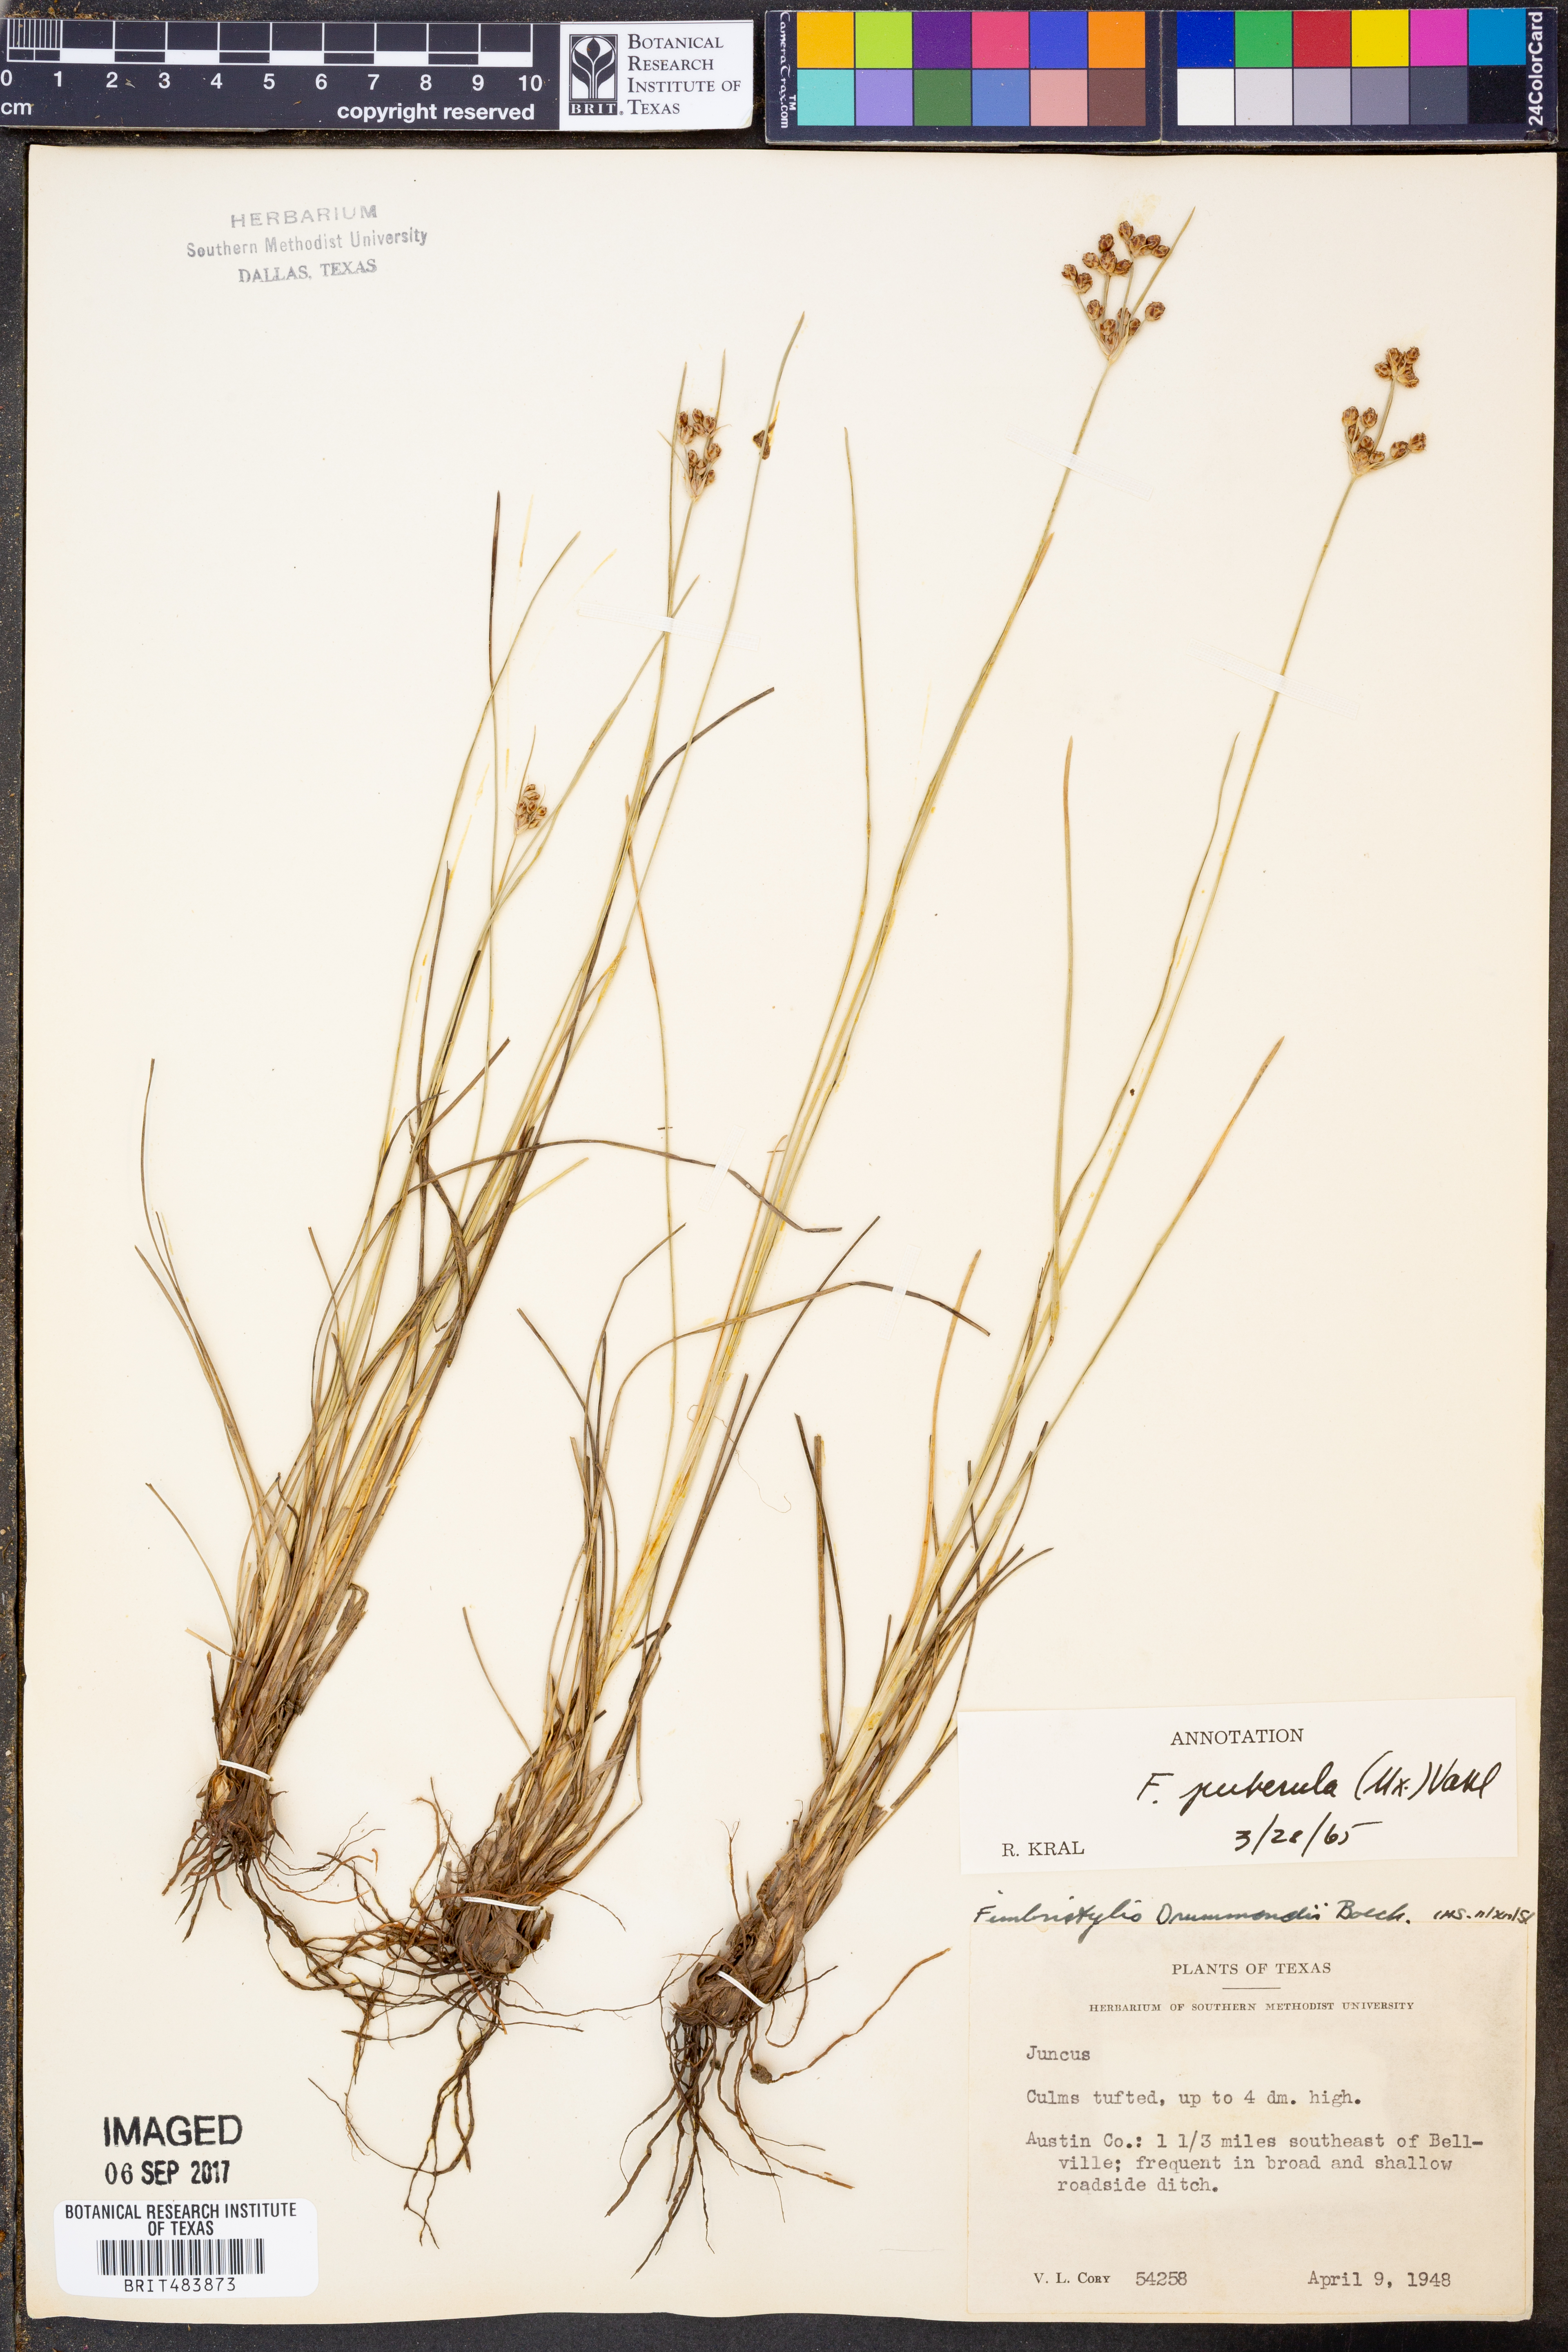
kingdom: Plantae
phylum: Tracheophyta
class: Liliopsida
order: Poales
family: Cyperaceae
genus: Fimbristylis
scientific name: Fimbristylis puberula
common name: Hairy fimbristylis
